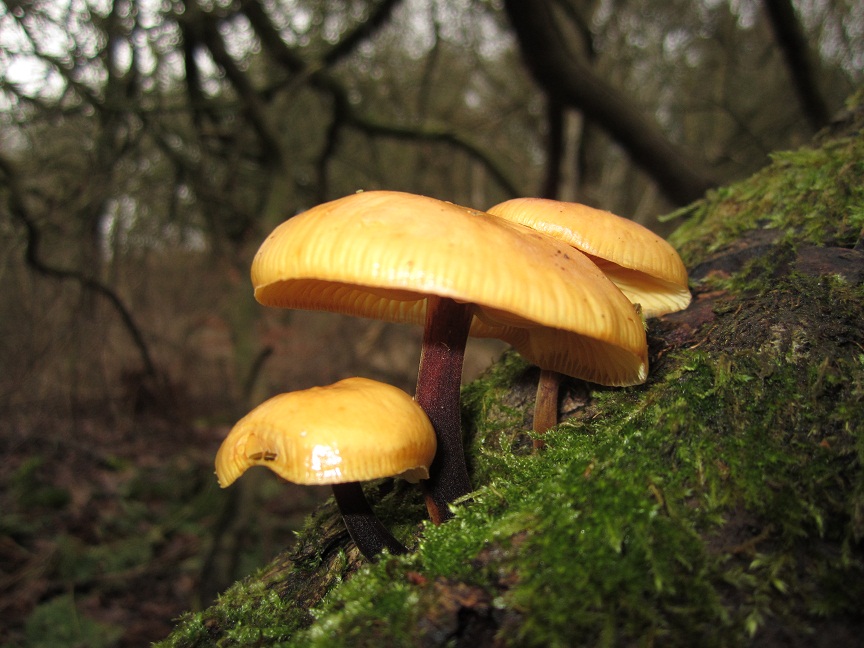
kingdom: Fungi
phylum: Basidiomycota
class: Agaricomycetes
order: Agaricales
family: Physalacriaceae
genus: Flammulina
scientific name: Flammulina elastica
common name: pile-fløjlsfod
